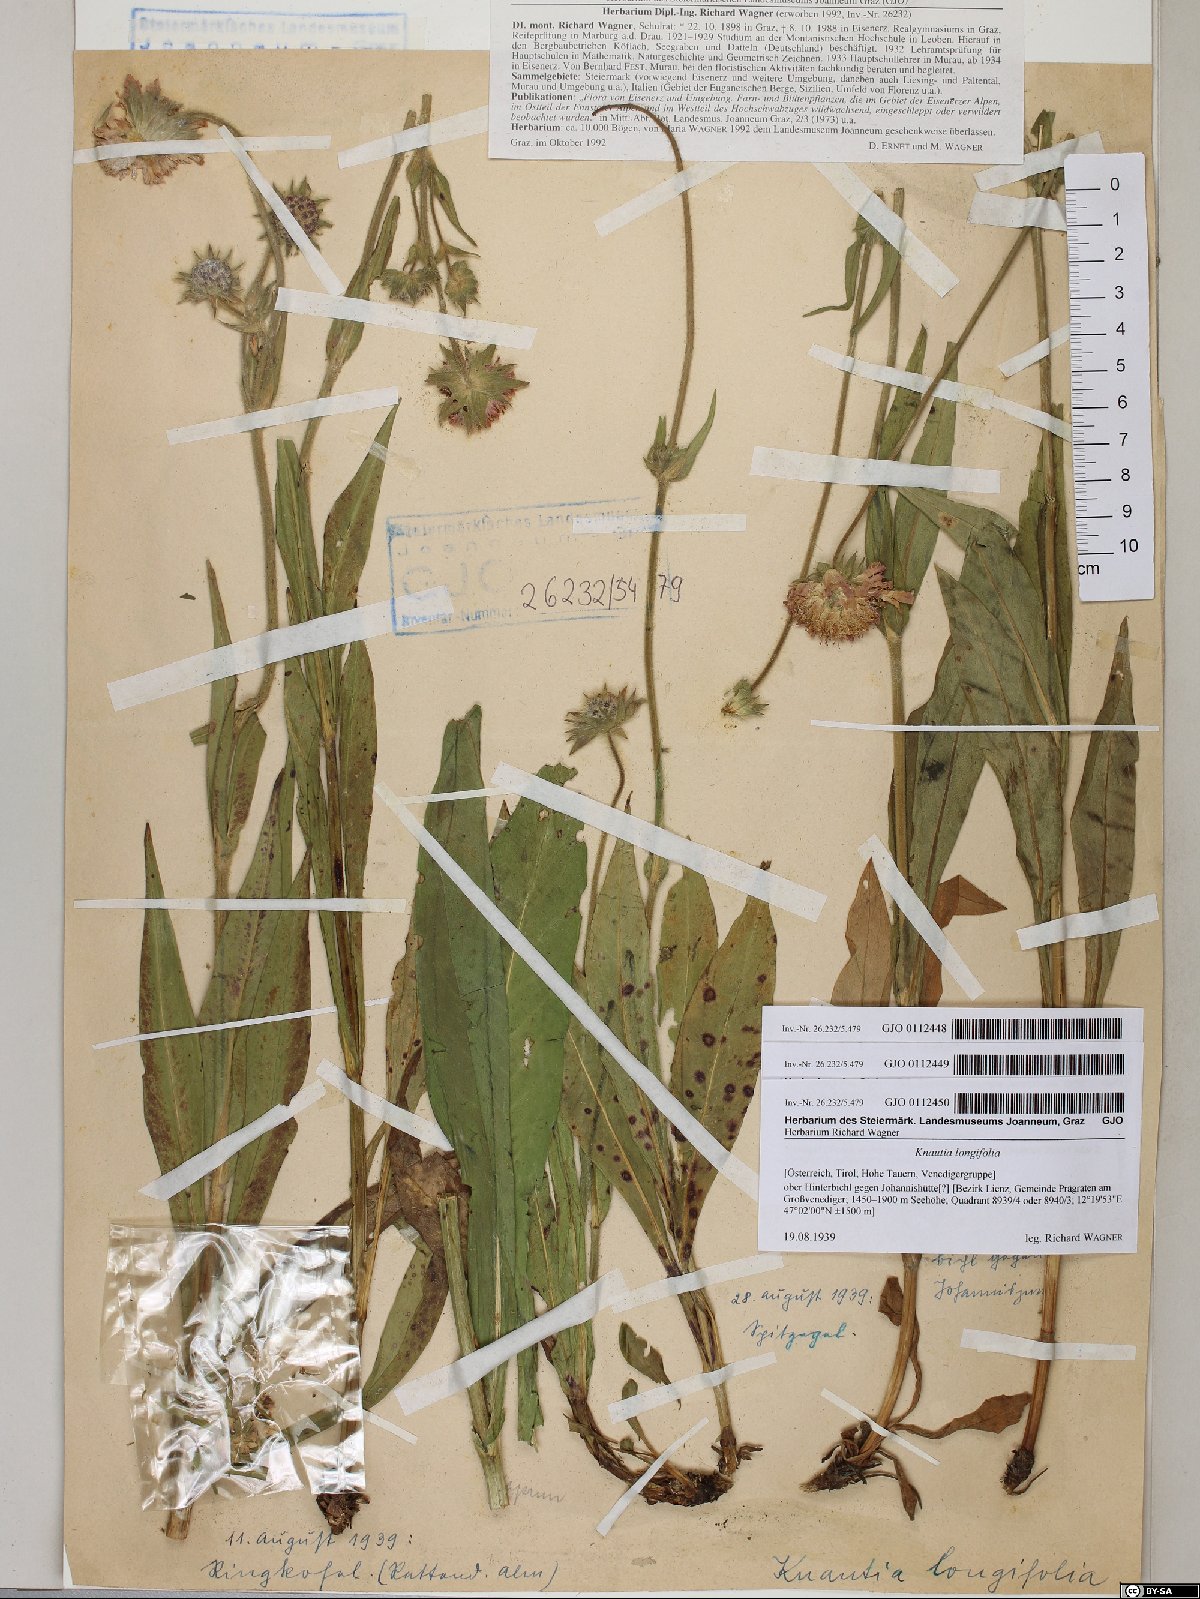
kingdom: Plantae
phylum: Tracheophyta
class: Magnoliopsida
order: Dipsacales
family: Caprifoliaceae
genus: Knautia
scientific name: Knautia longifolia
